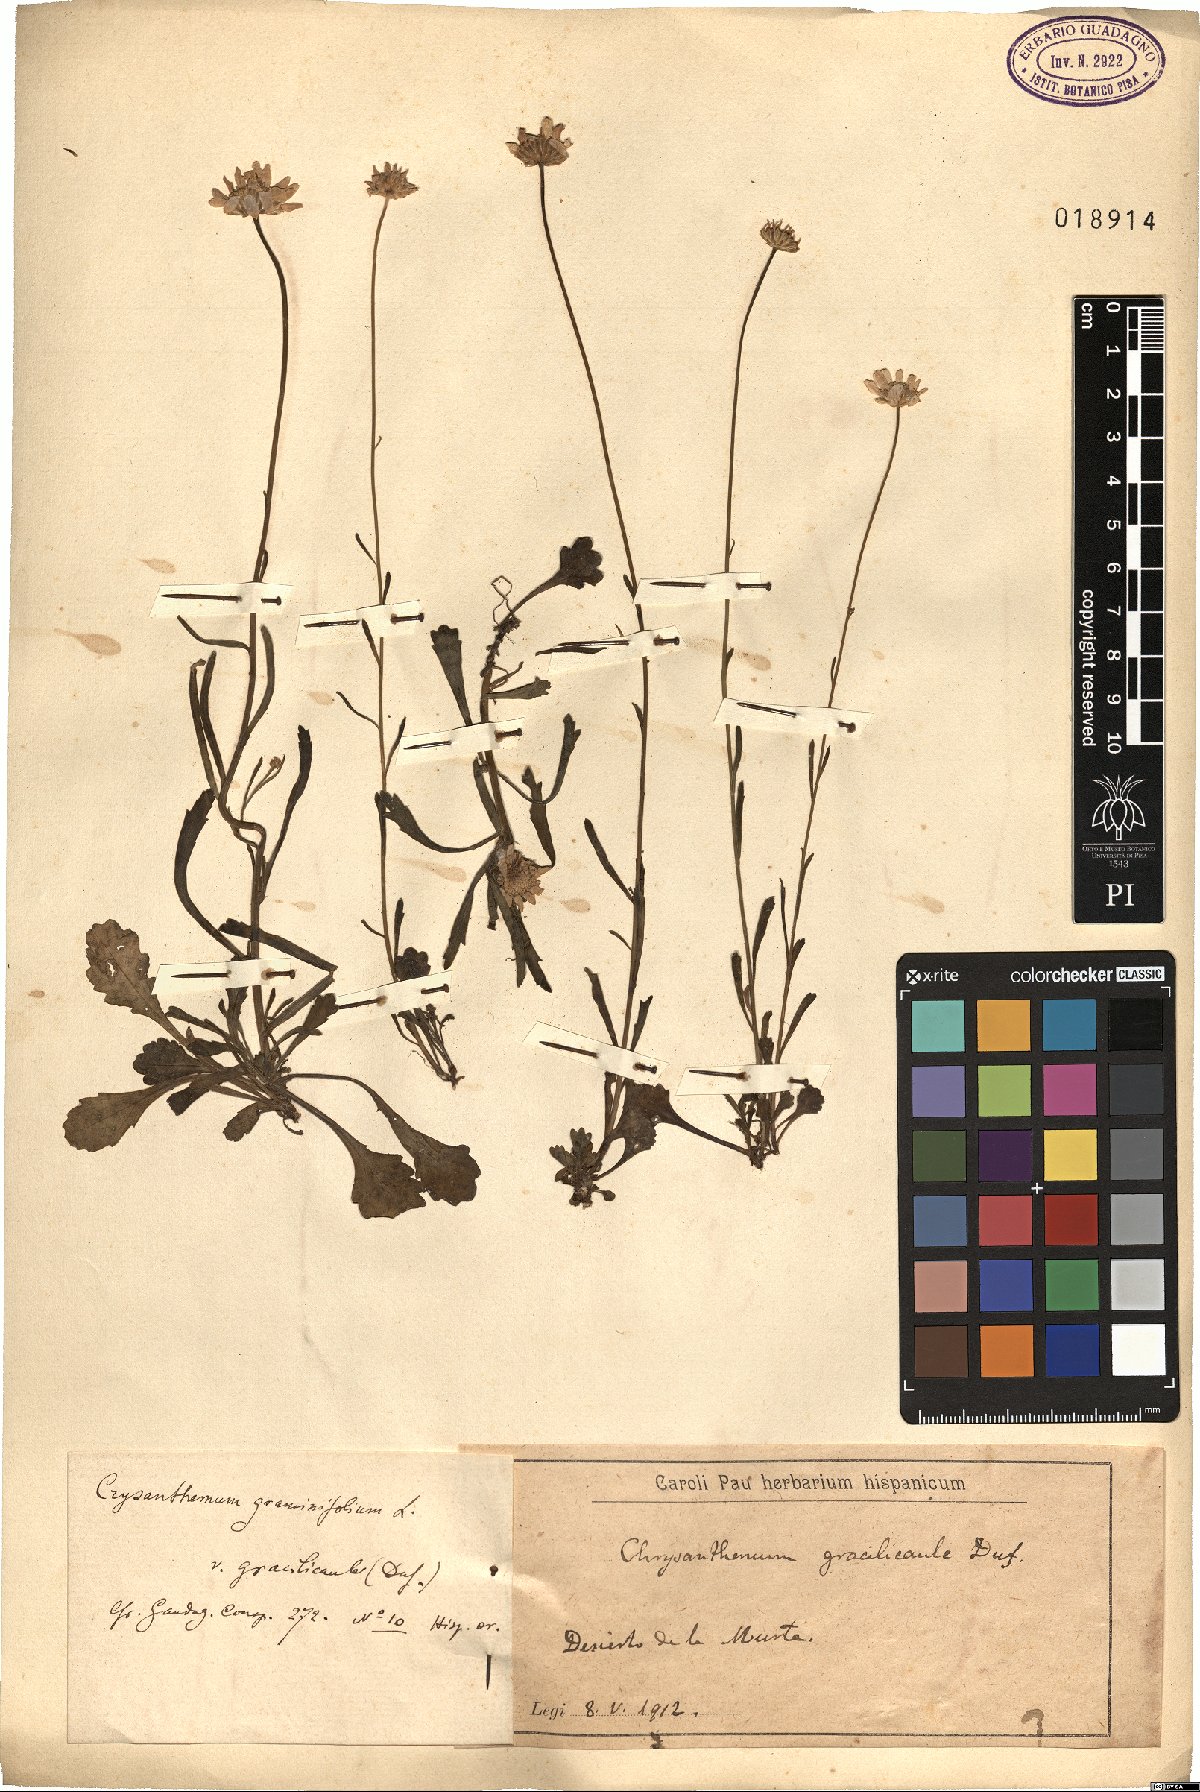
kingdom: Plantae
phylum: Tracheophyta
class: Magnoliopsida
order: Asterales
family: Asteraceae
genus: Leucanthemum
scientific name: Leucanthemum graminifolium
